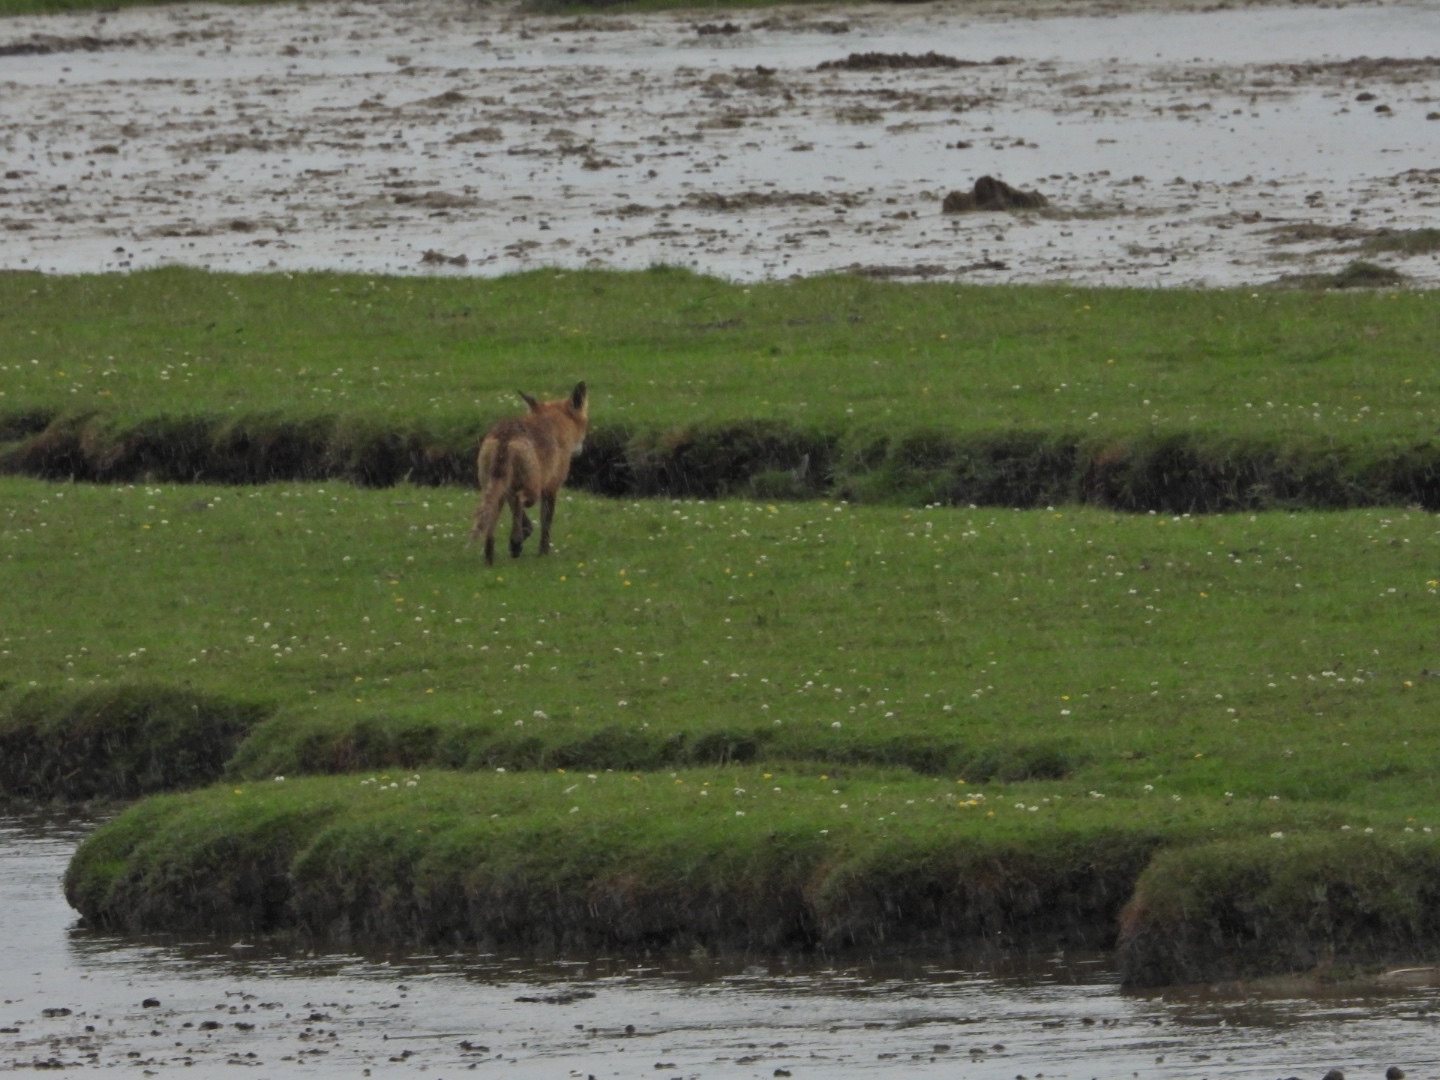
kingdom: Animalia
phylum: Chordata
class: Mammalia
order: Carnivora
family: Canidae
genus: Vulpes
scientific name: Vulpes vulpes
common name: Ræv
